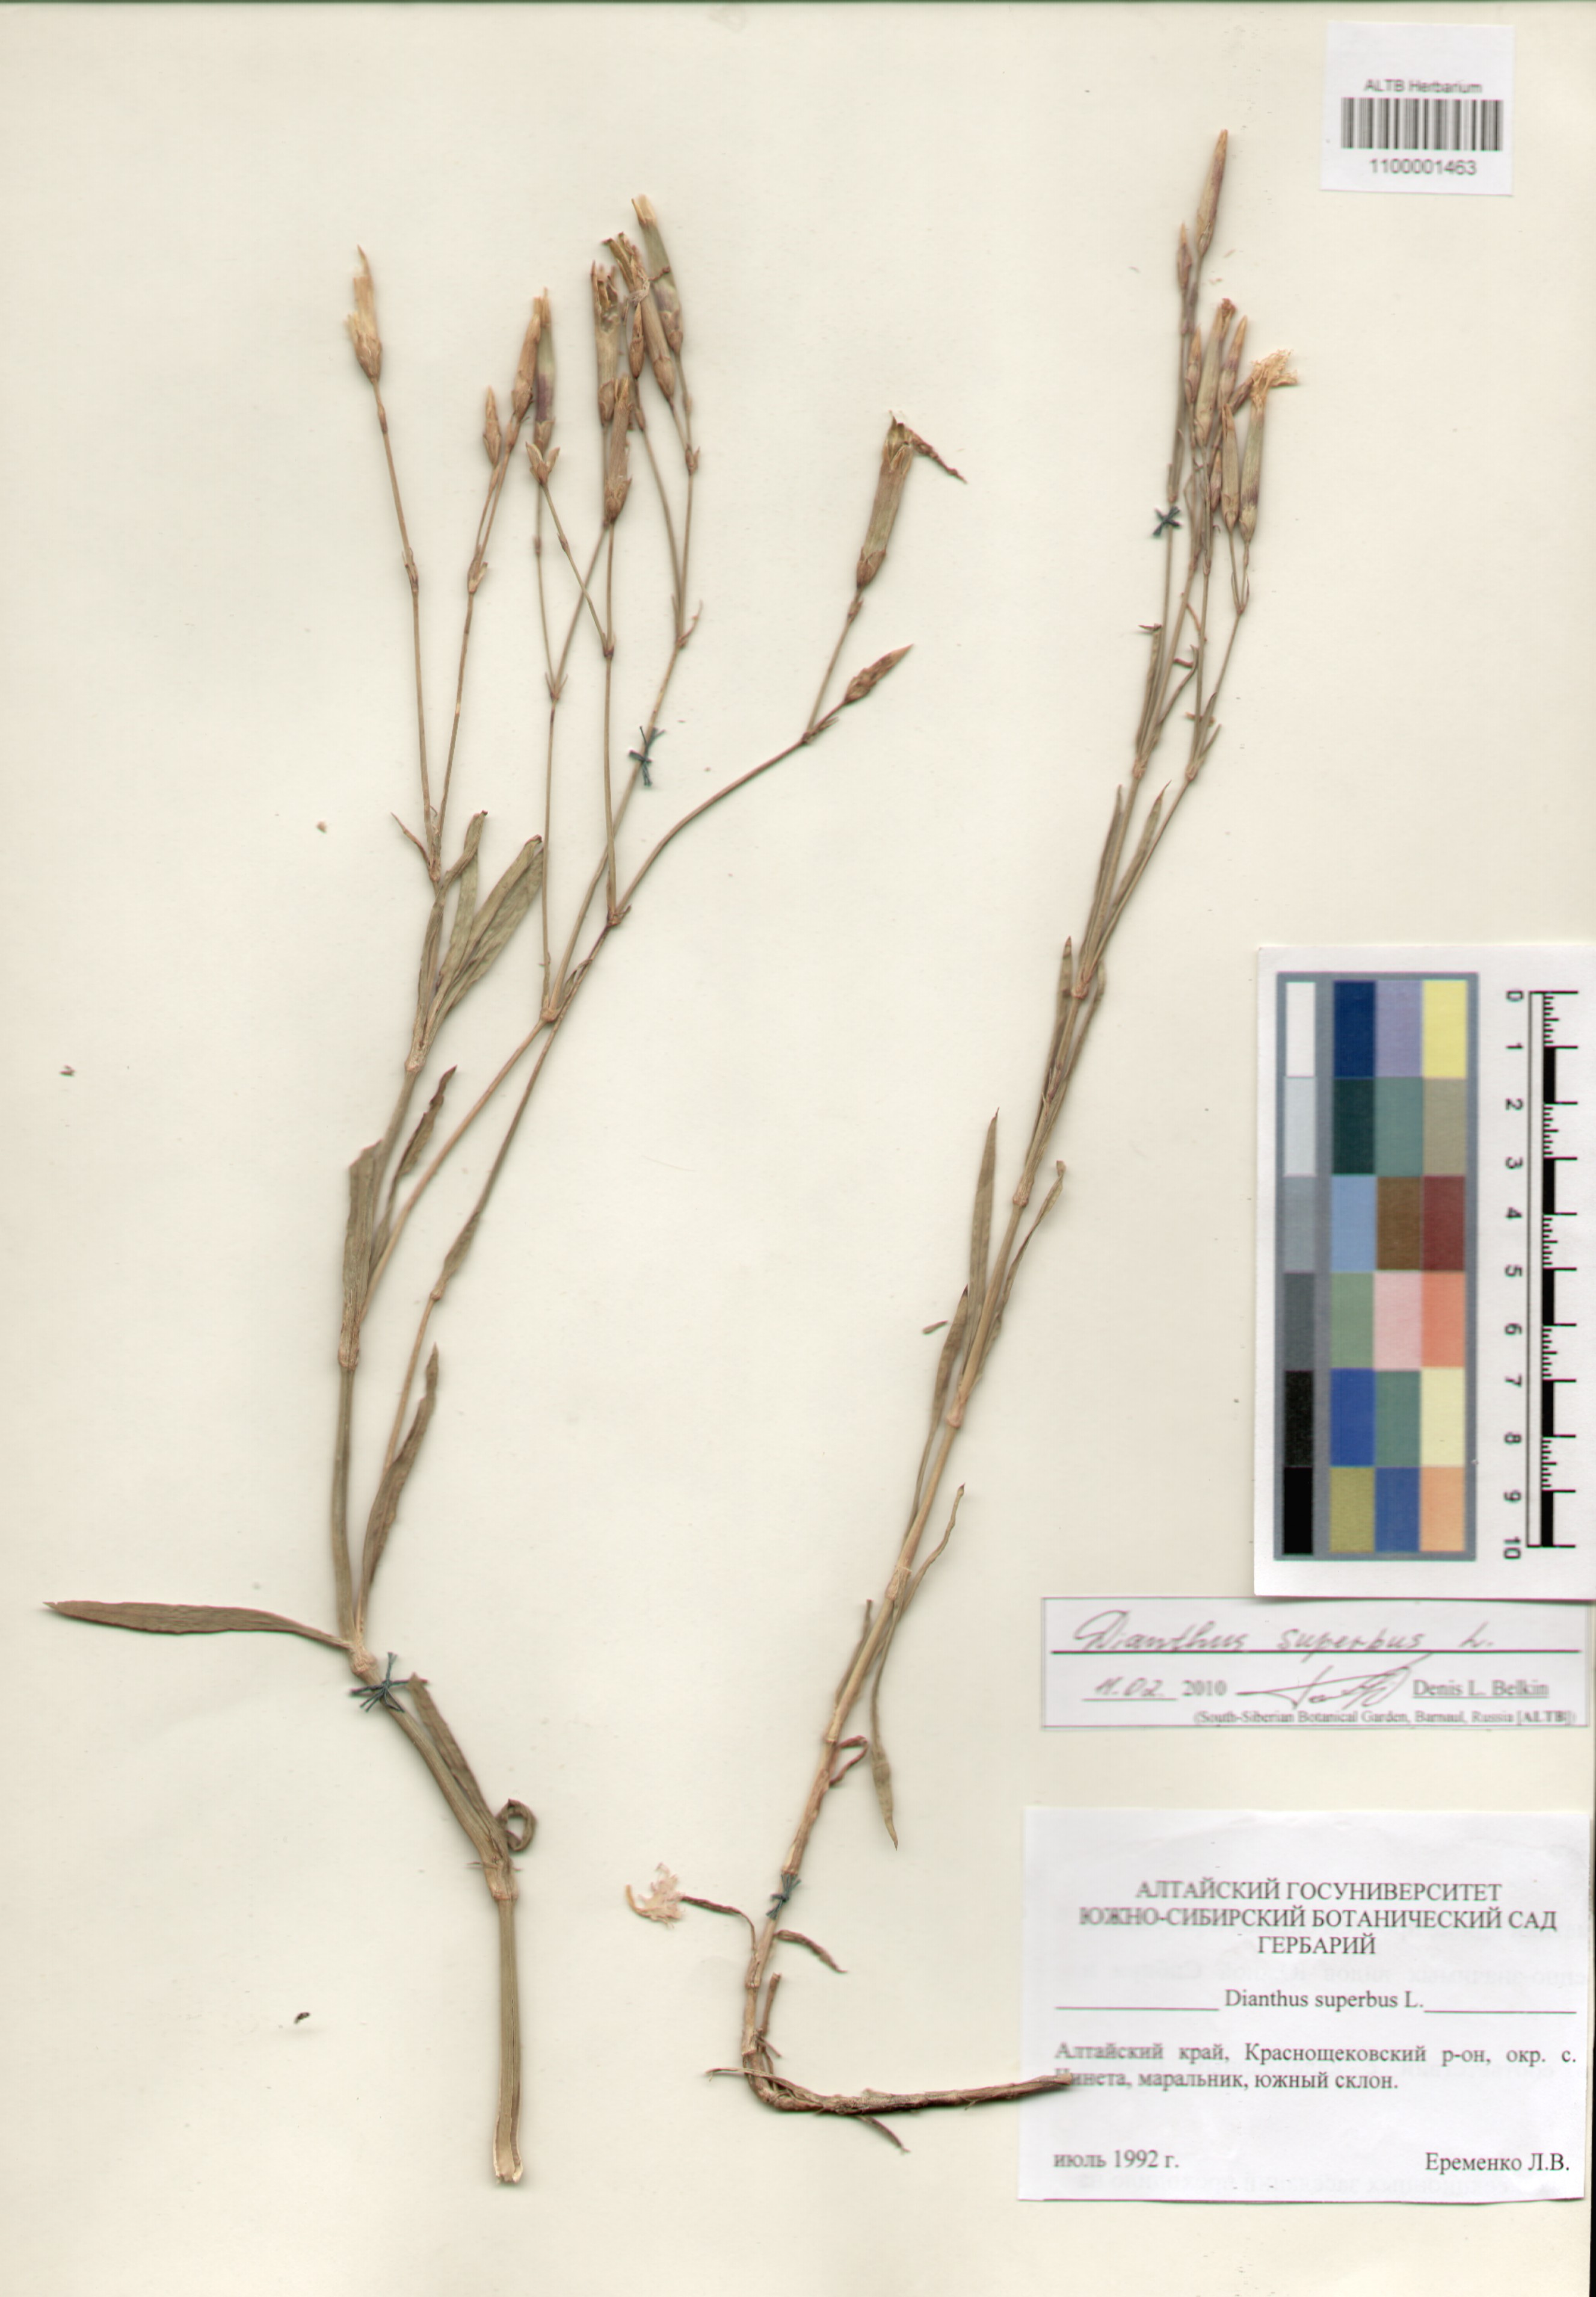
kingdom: Plantae
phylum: Tracheophyta
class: Magnoliopsida
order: Caryophyllales
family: Caryophyllaceae
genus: Dianthus
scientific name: Dianthus superbus
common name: Fringed pink
